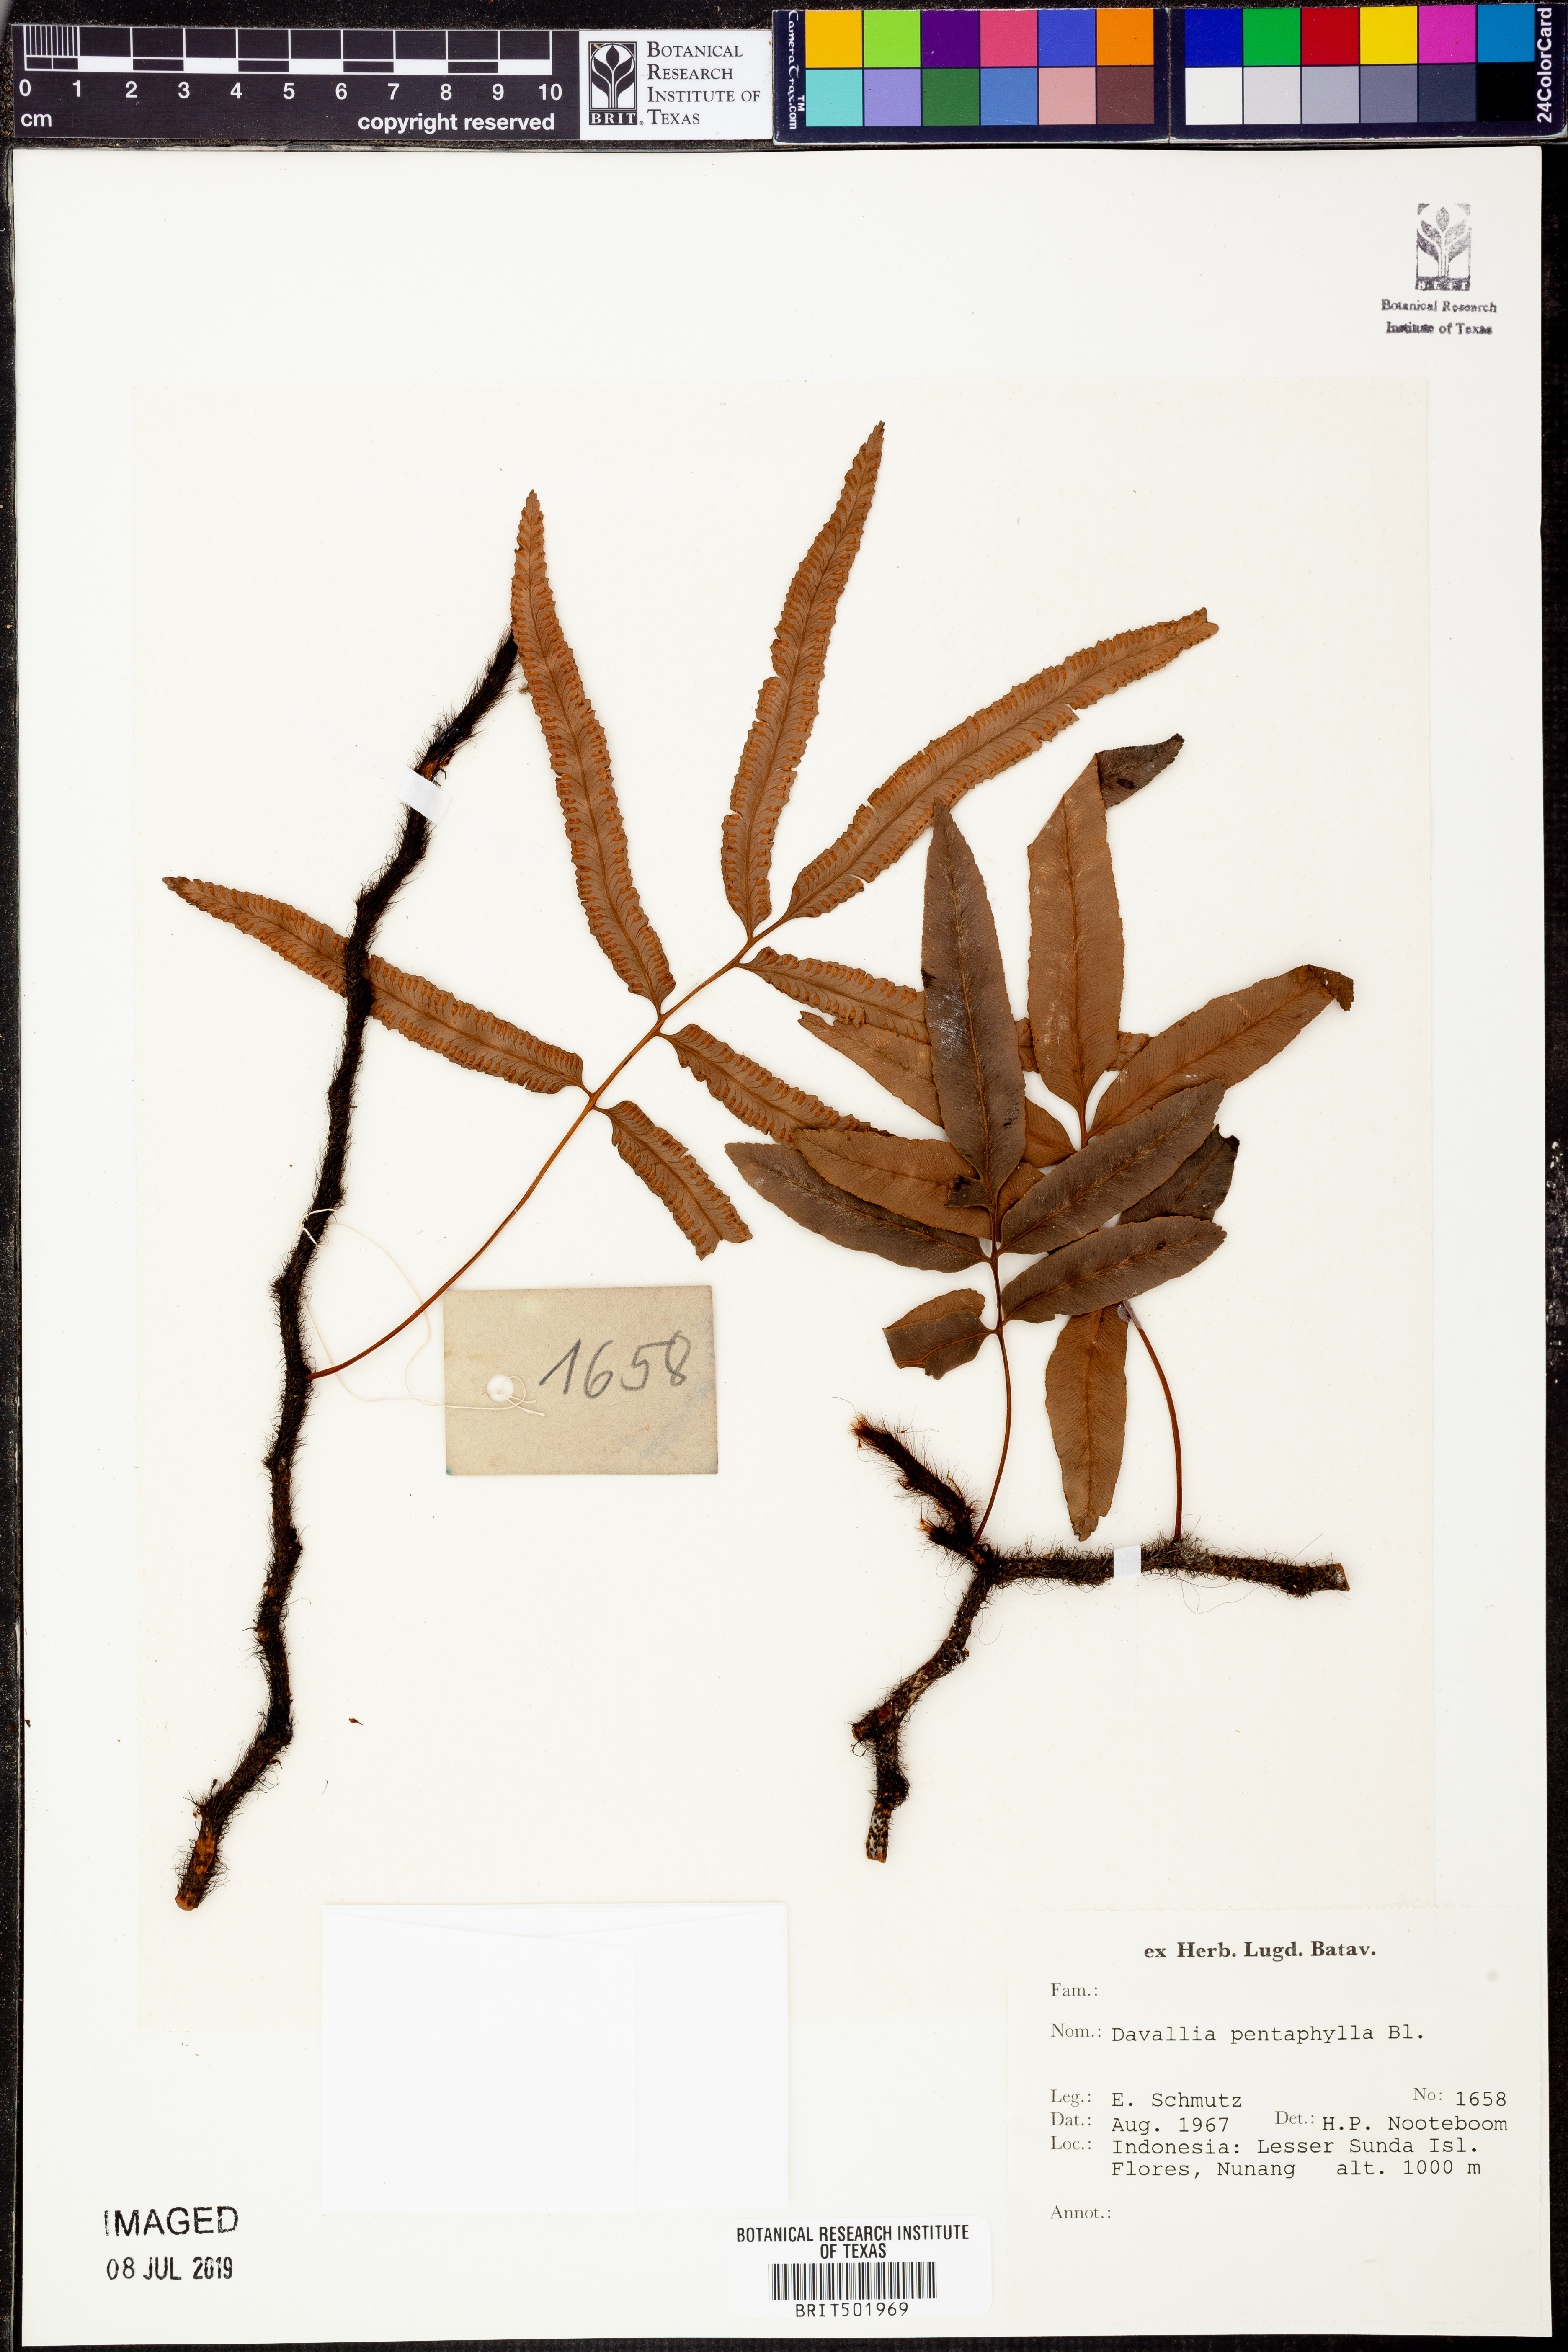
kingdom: Plantae
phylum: Tracheophyta
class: Polypodiopsida
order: Polypodiales
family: Davalliaceae
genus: Davallia
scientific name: Davallia pentaphylla
